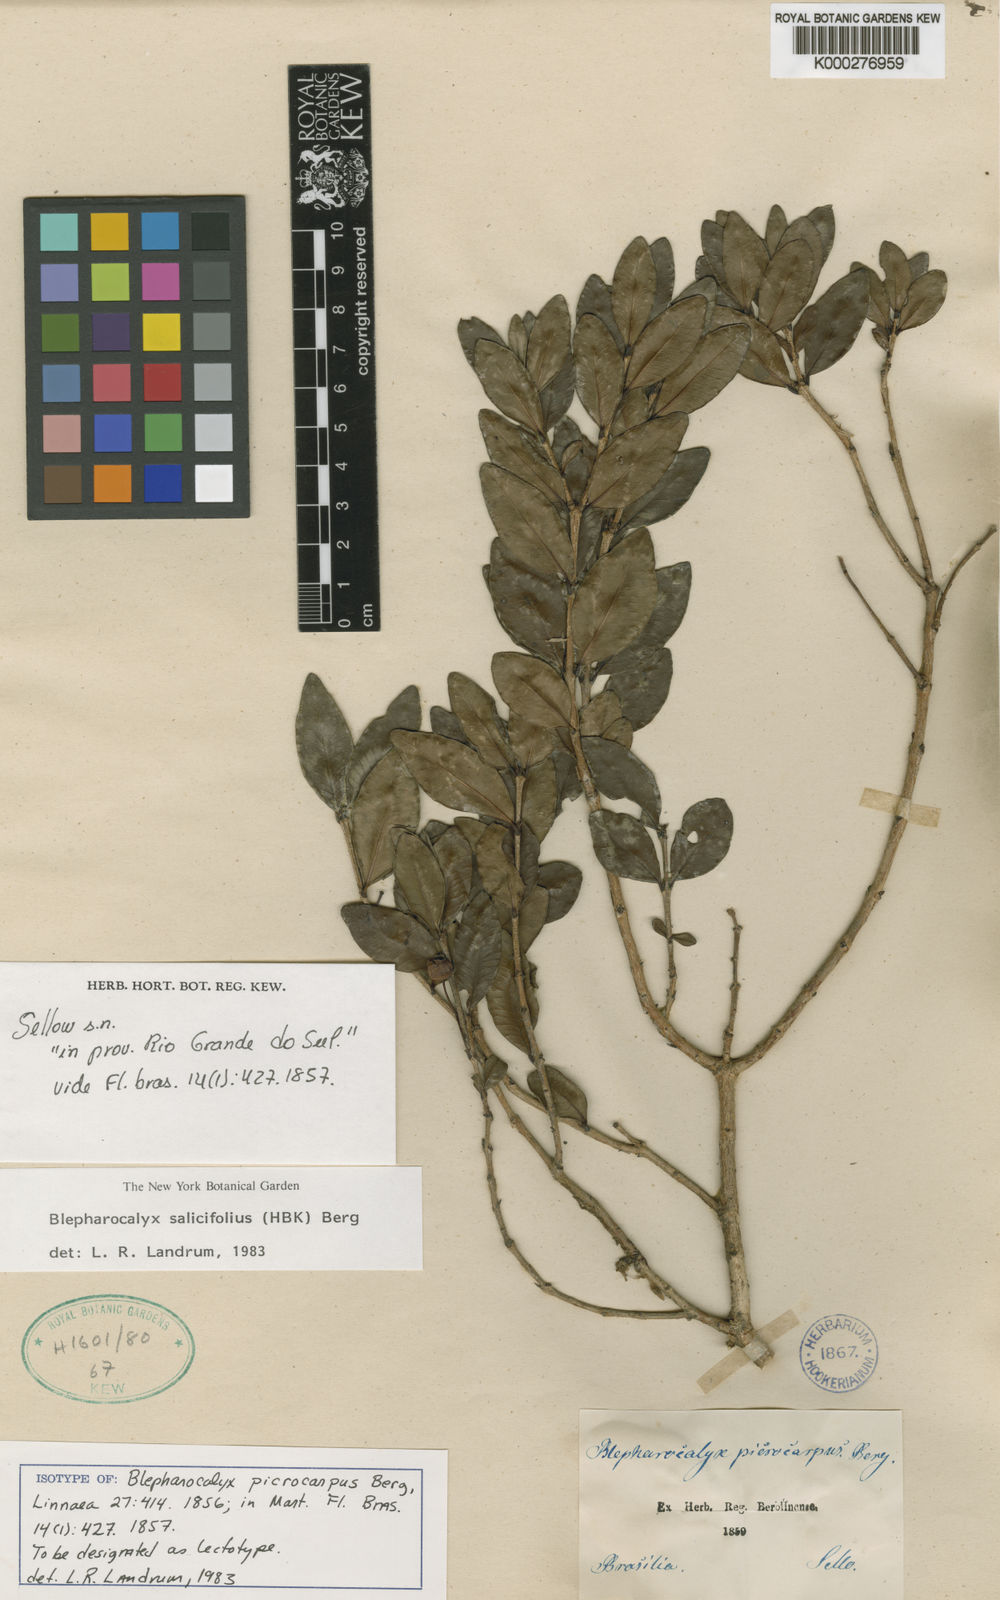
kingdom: Plantae
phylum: Tracheophyta
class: Magnoliopsida
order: Myrtales
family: Myrtaceae
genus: Blepharocalyx
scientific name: Blepharocalyx salicifolius
